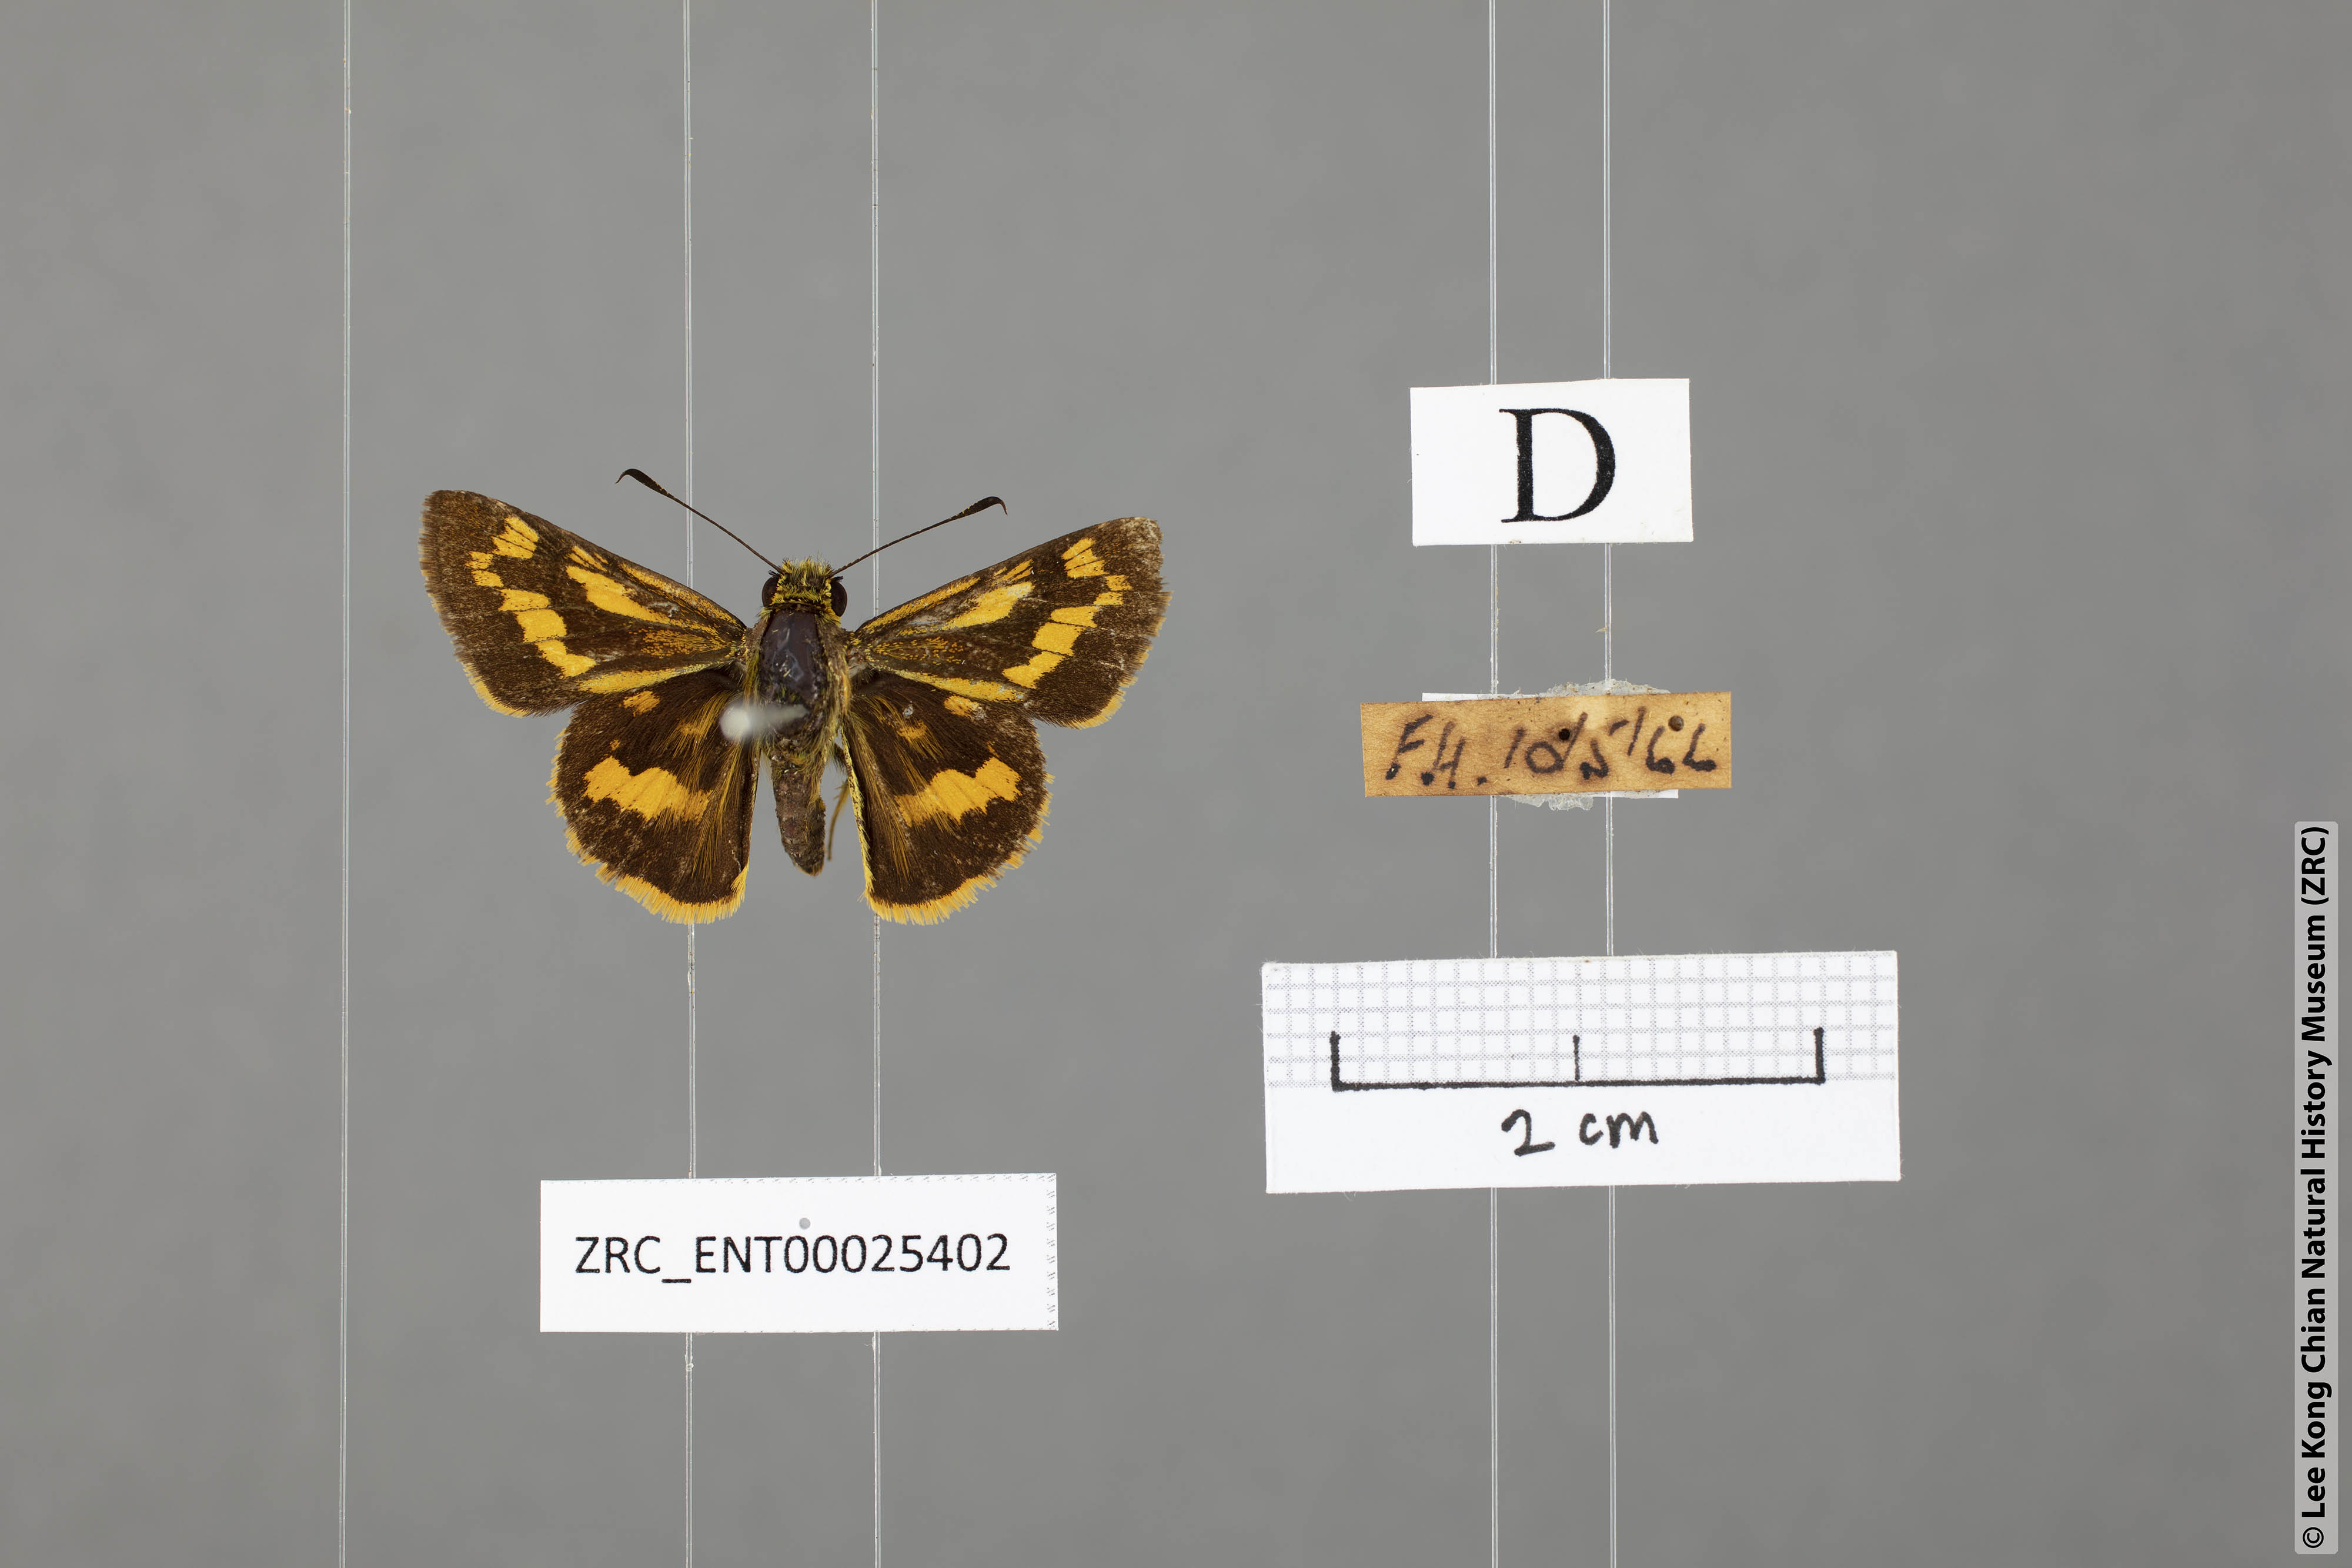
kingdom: Animalia
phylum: Arthropoda
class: Insecta
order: Lepidoptera
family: Hesperiidae
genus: Potanthus
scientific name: Potanthus lydia
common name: Lydia dart
